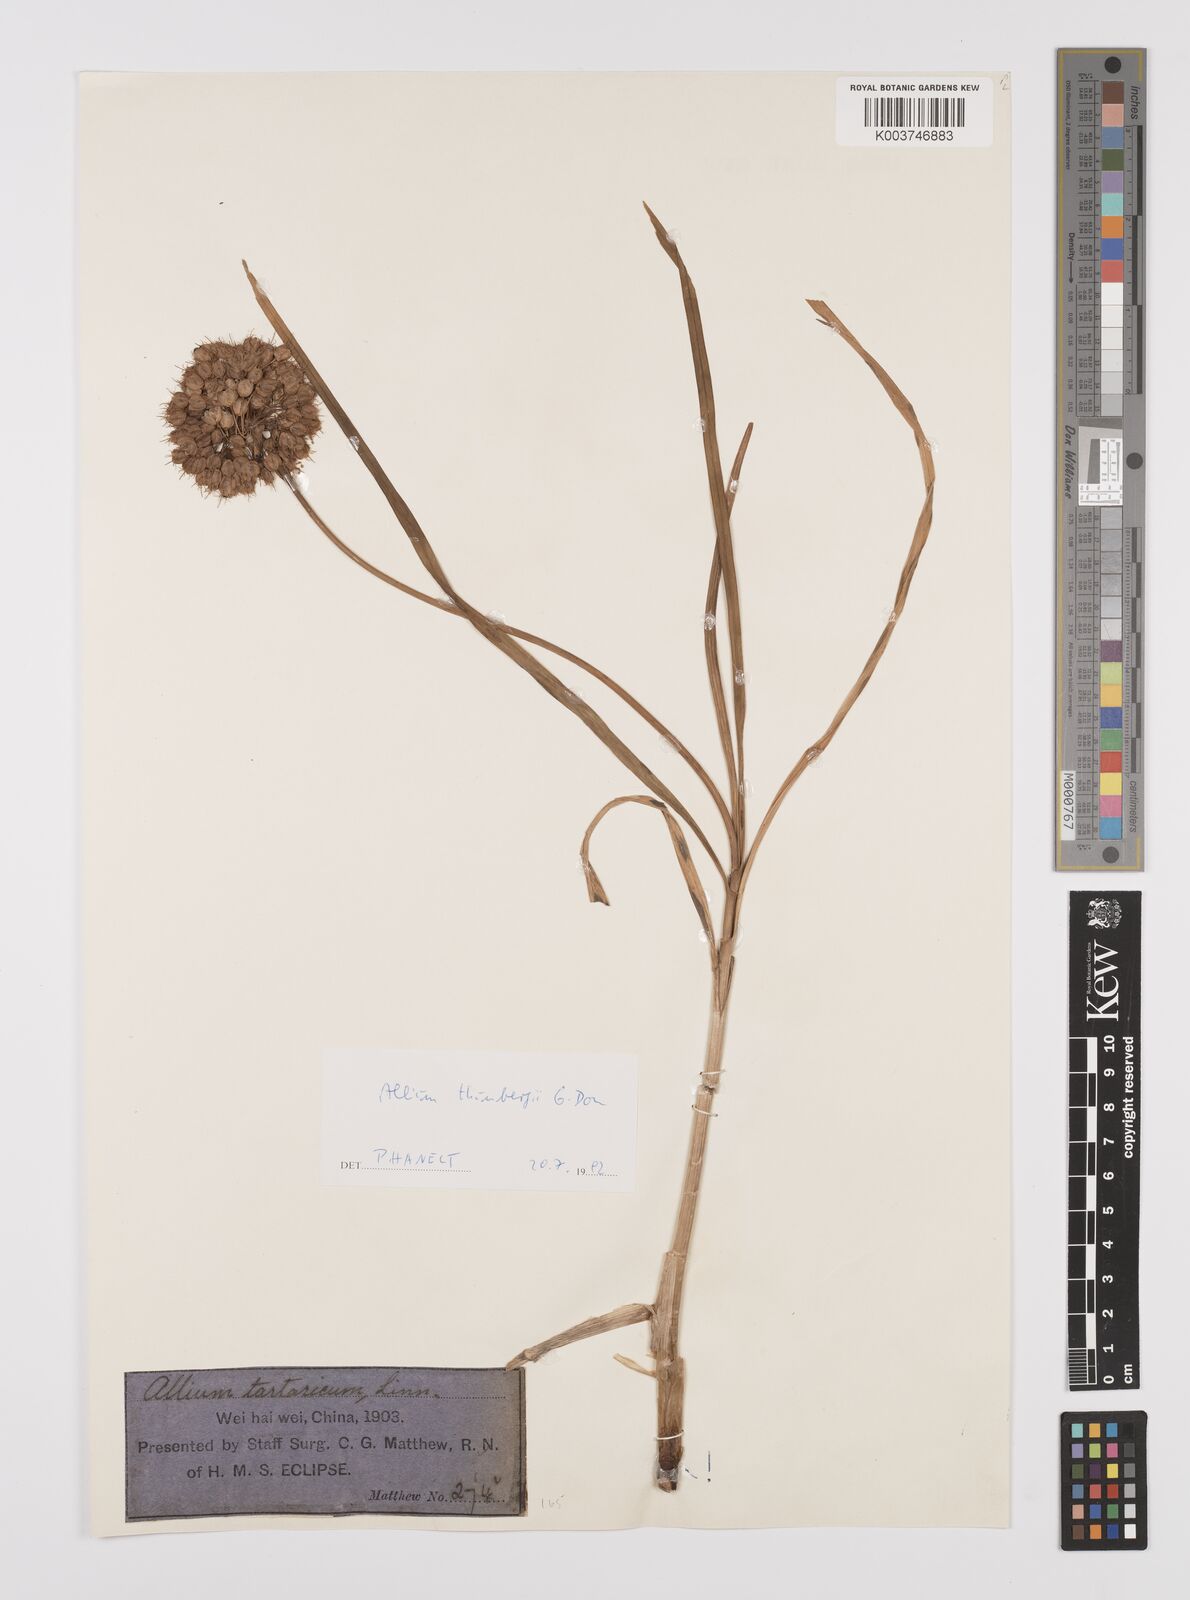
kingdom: Plantae
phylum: Tracheophyta
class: Liliopsida
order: Asparagales
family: Amaryllidaceae
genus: Allium
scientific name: Allium thunbergii
